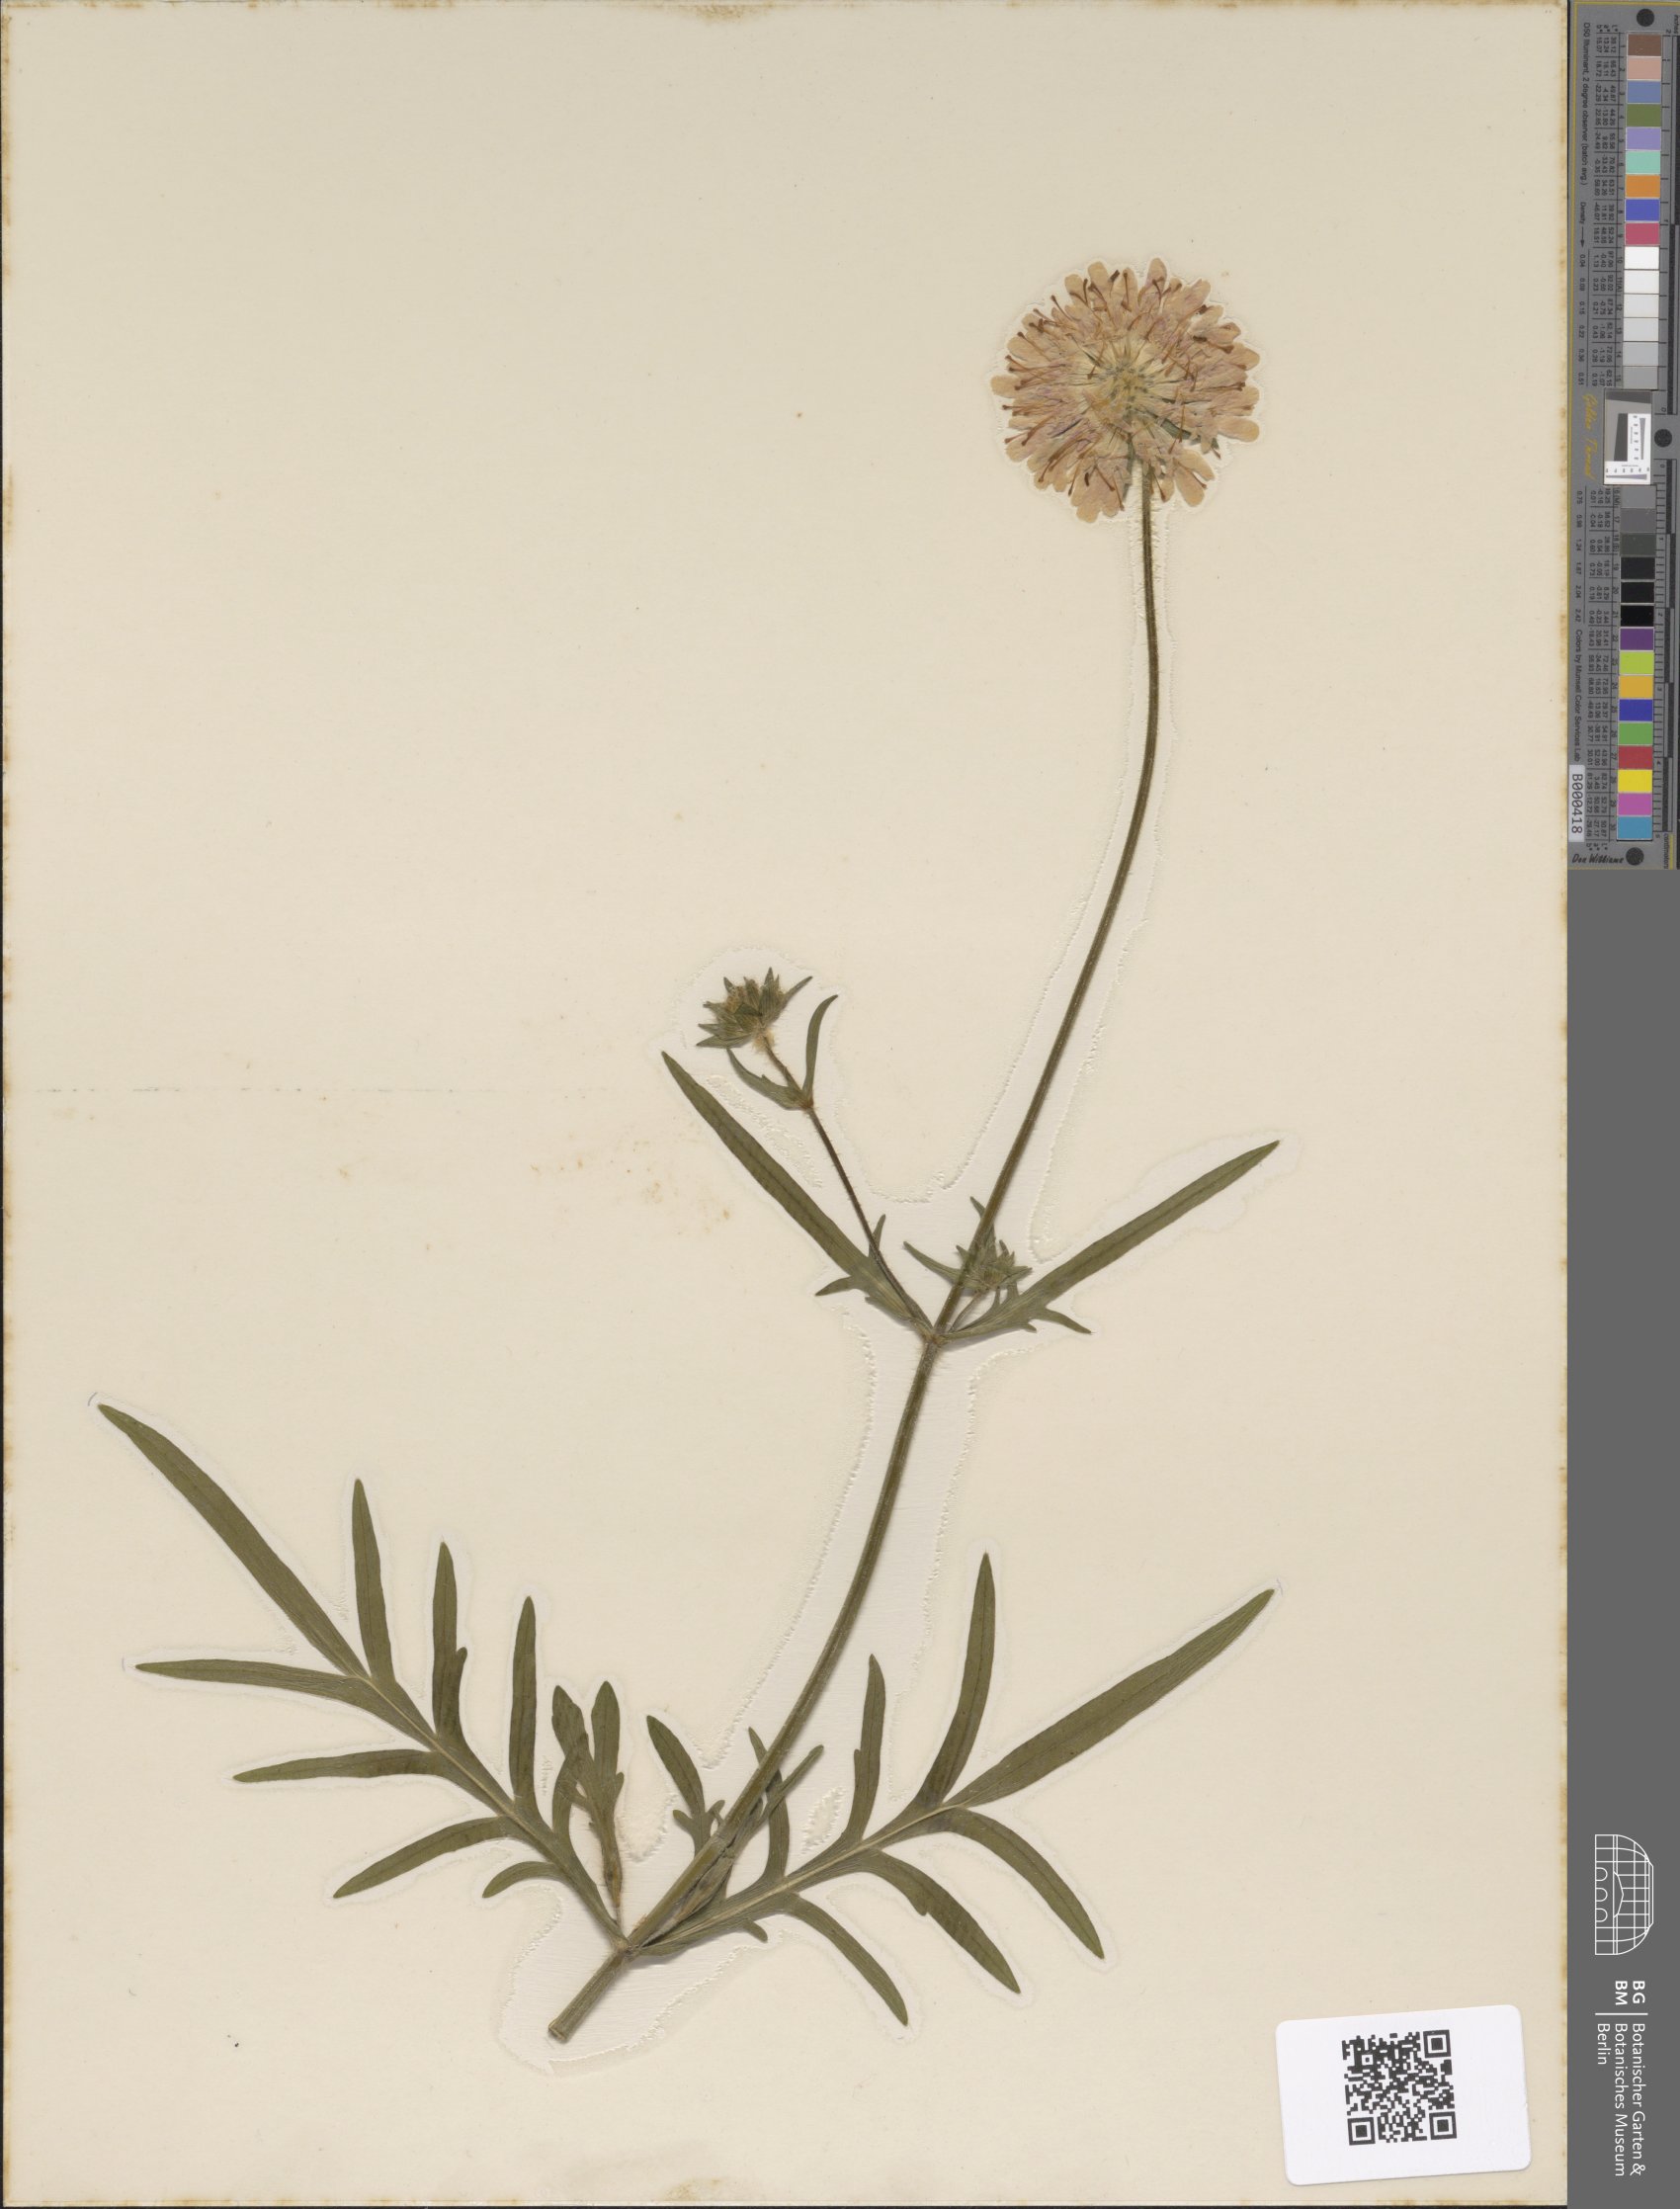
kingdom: Plantae
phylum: Tracheophyta
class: Magnoliopsida
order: Dipsacales
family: Caprifoliaceae
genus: Knautia
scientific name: Knautia arvensis
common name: Field scabiosa
